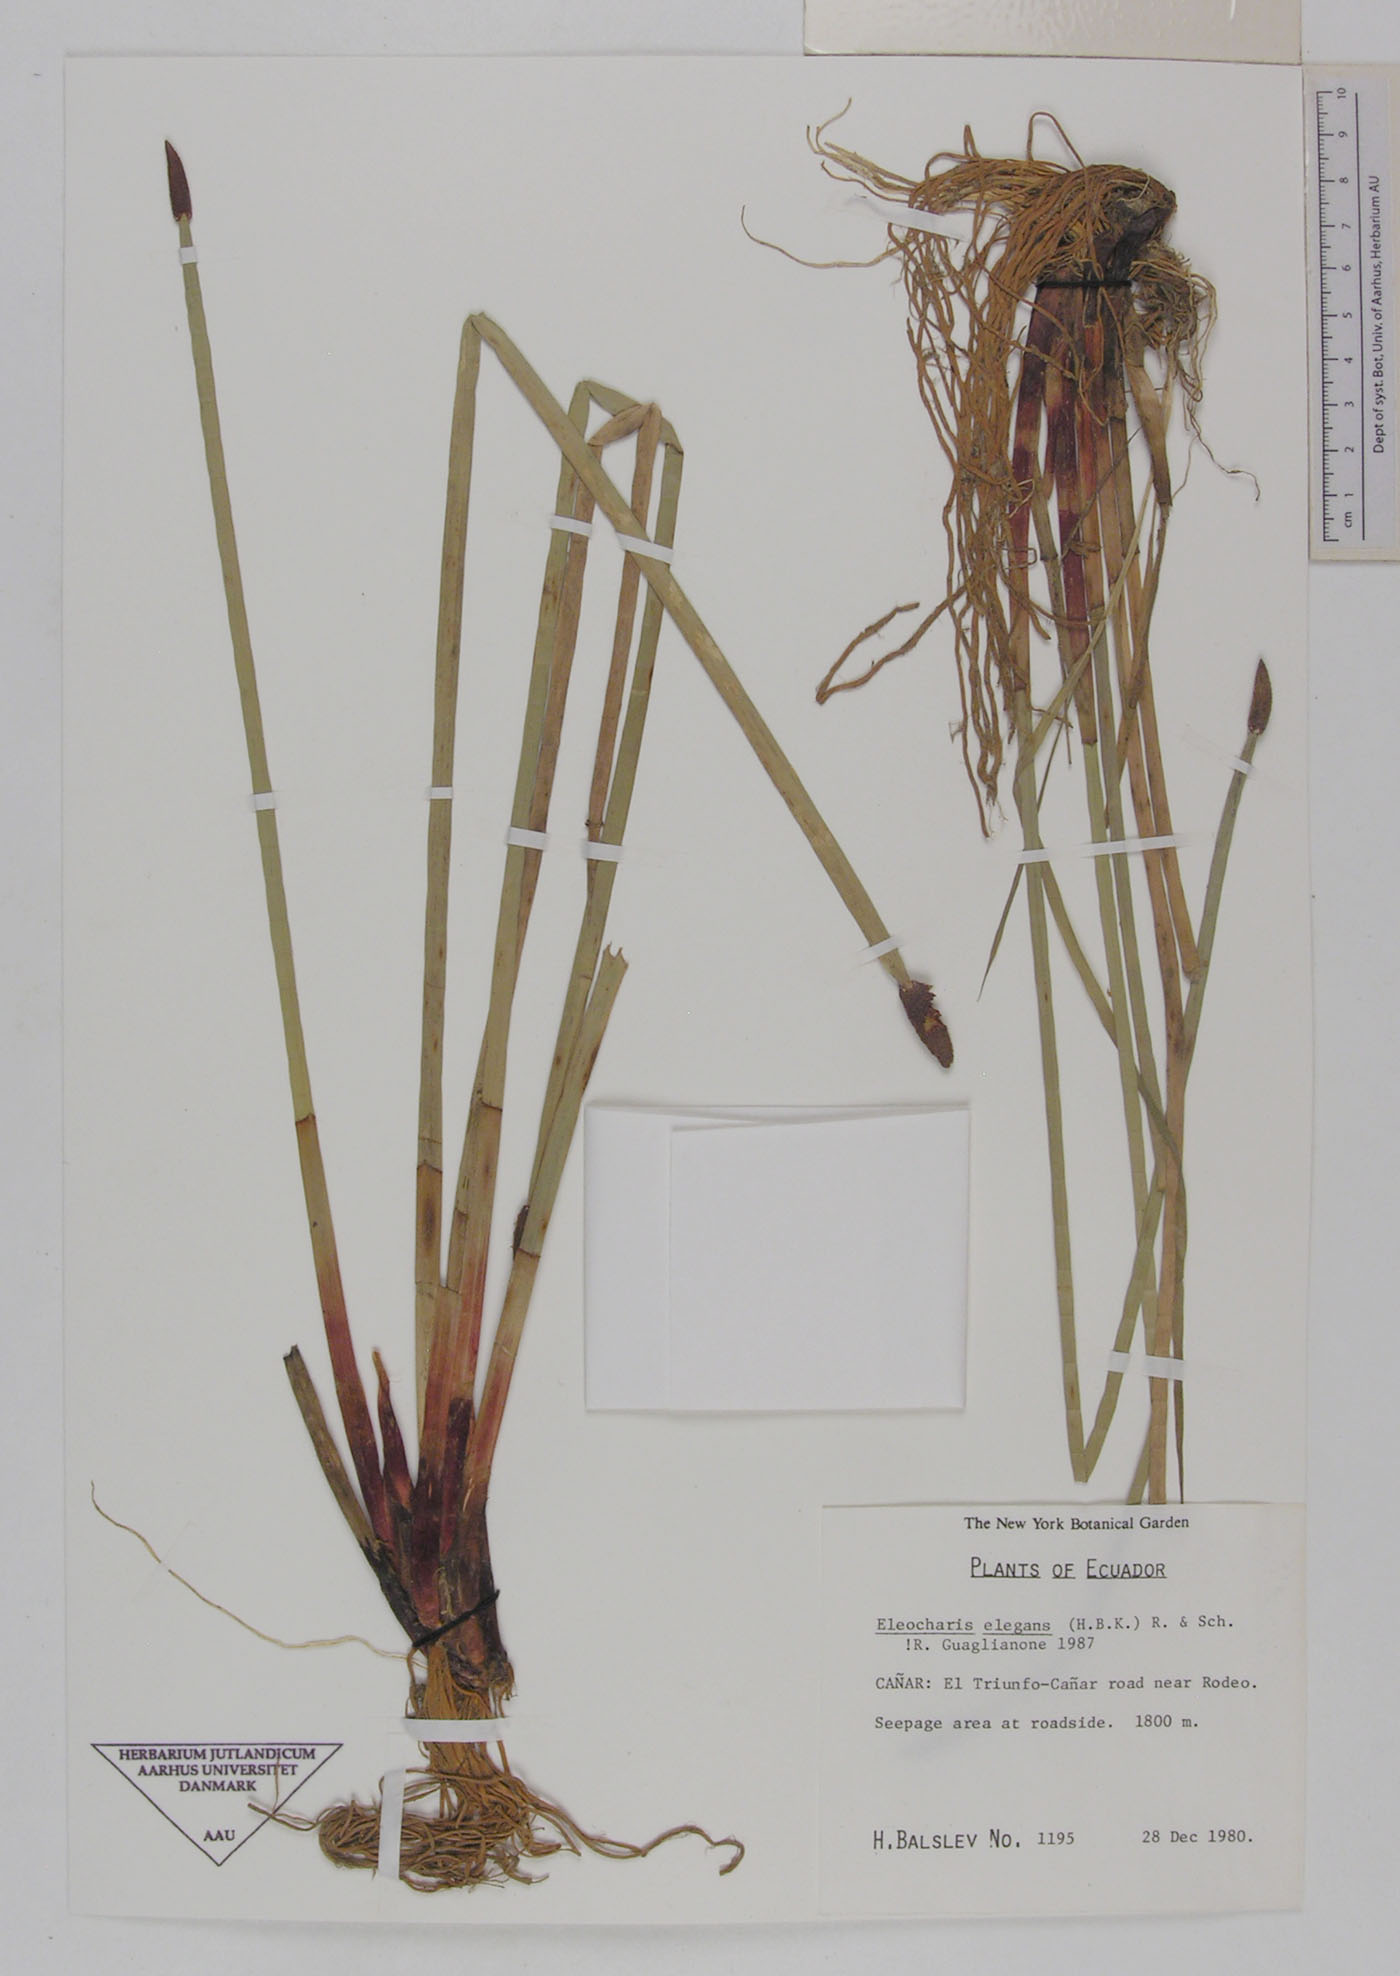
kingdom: Plantae
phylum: Tracheophyta
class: Liliopsida
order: Poales
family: Cyperaceae
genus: Eleocharis
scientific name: Eleocharis elegans
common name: Elegant spike-rush
